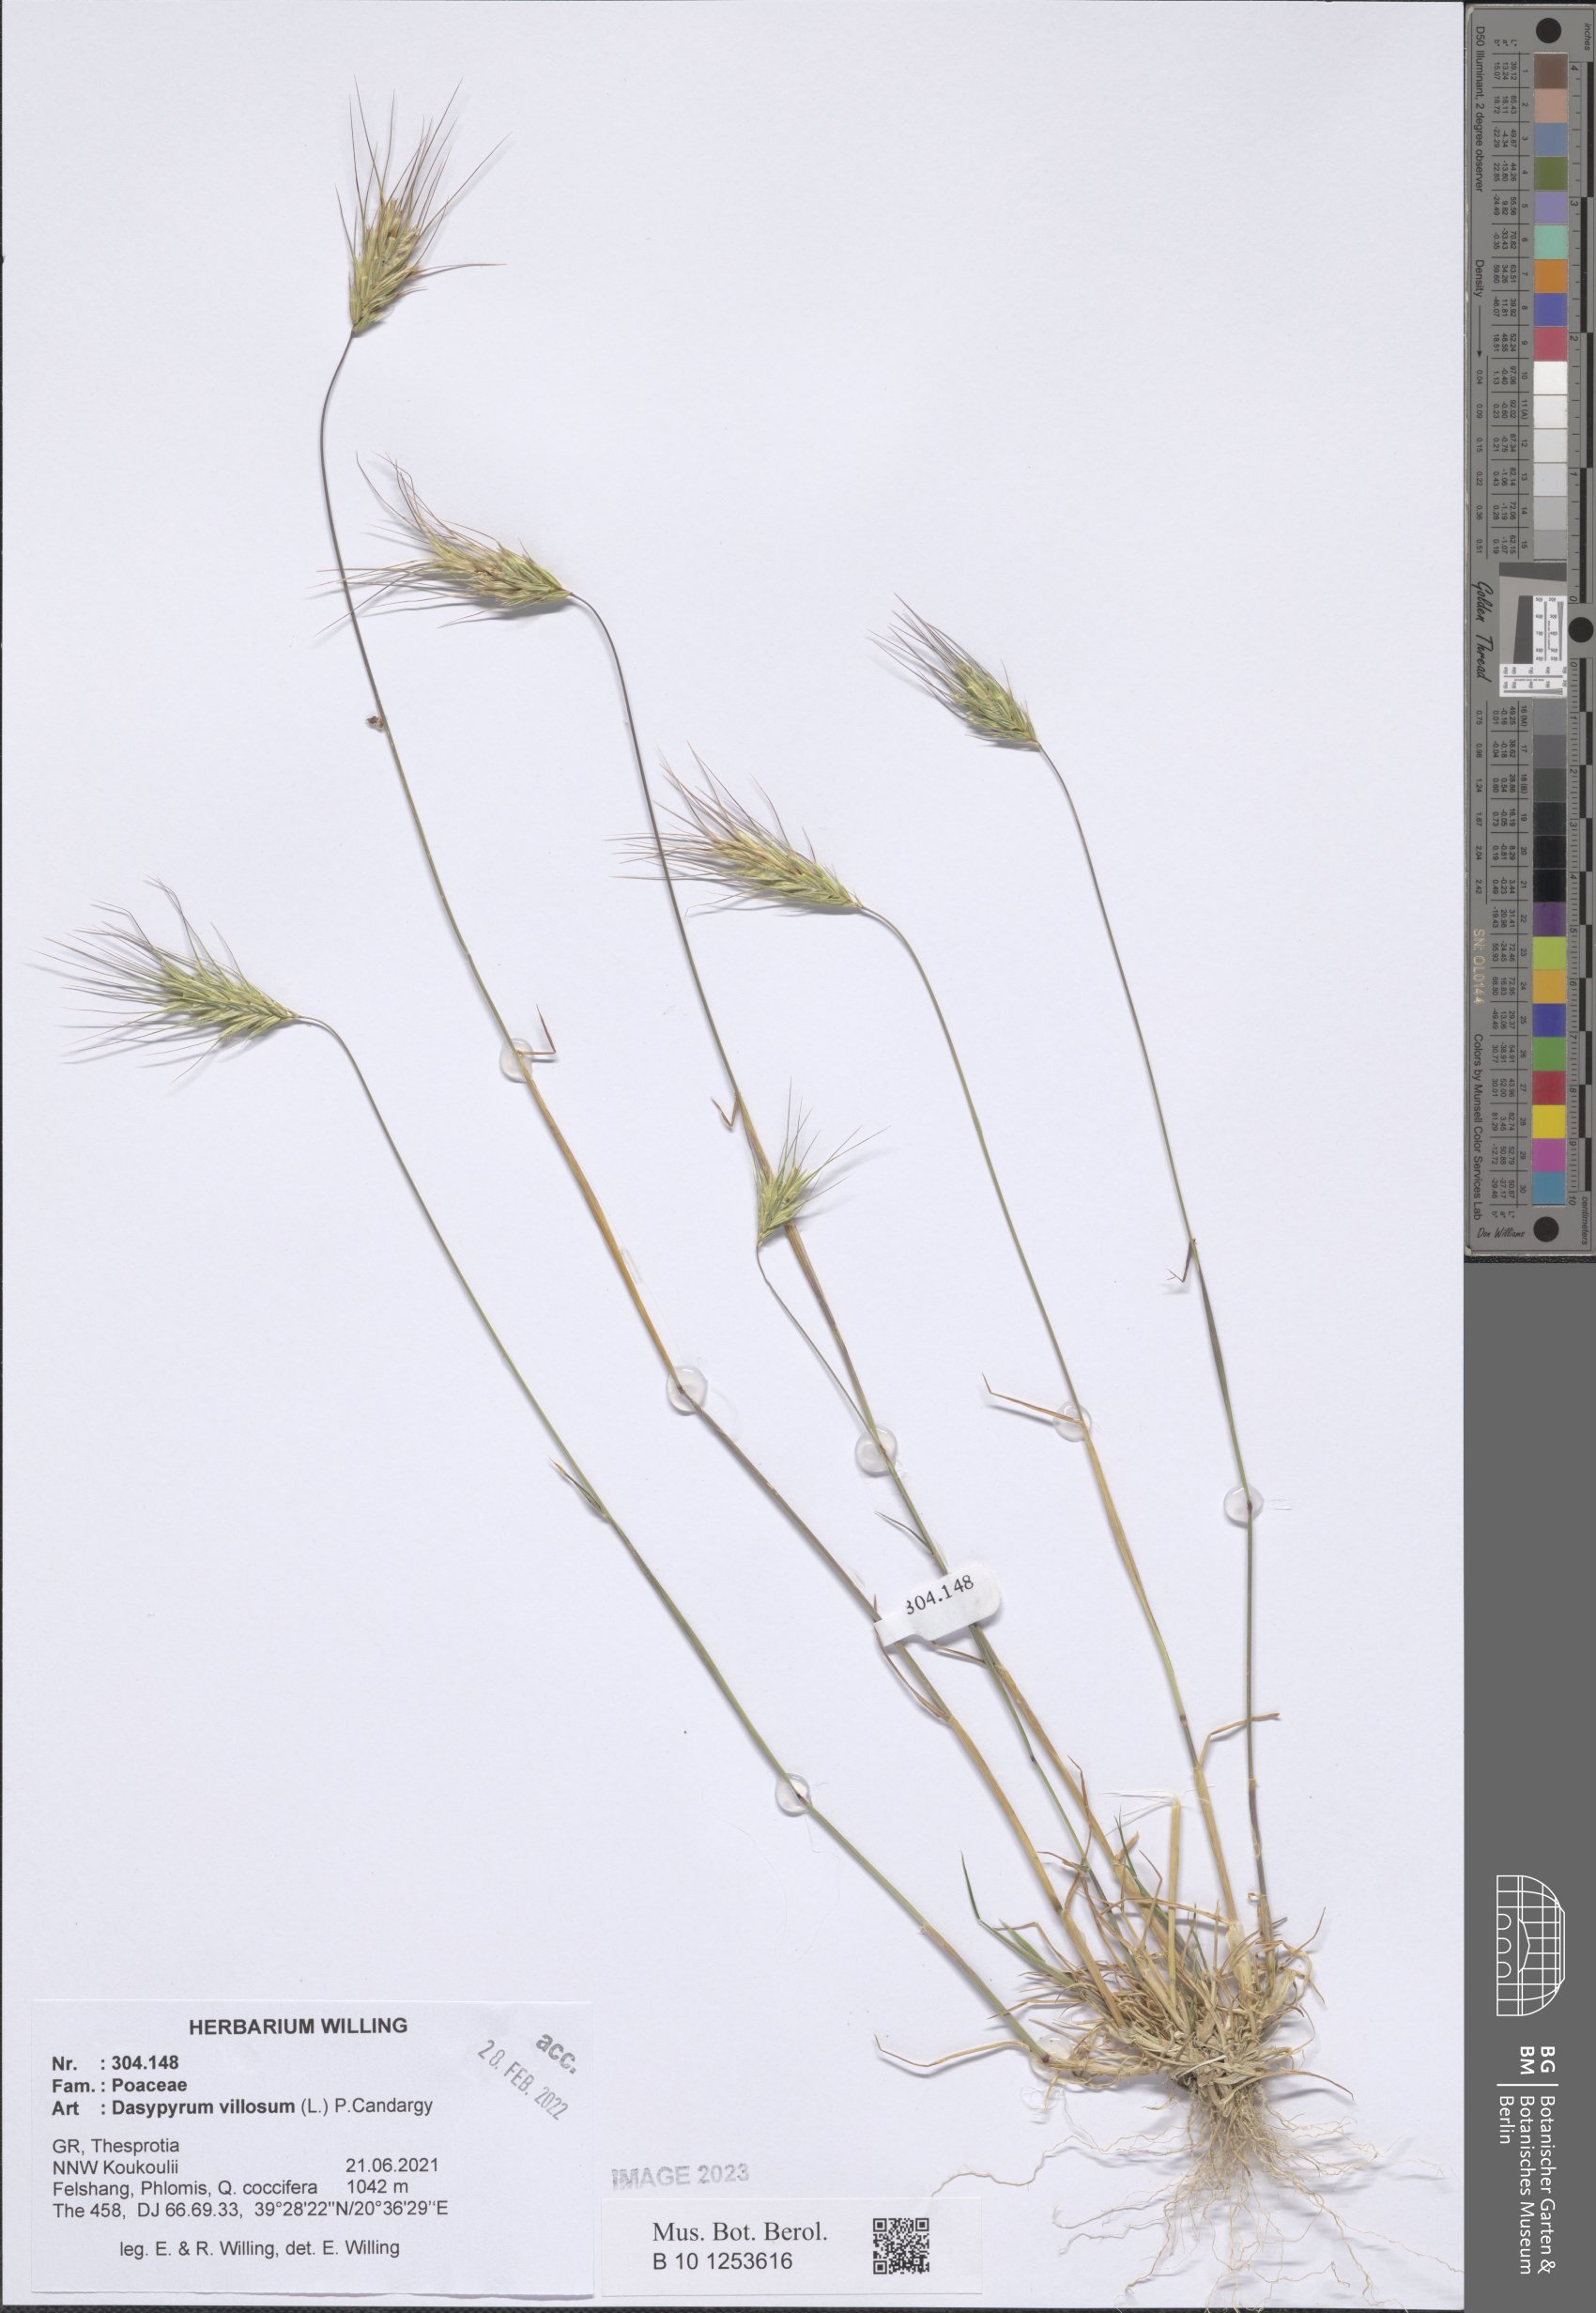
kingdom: Plantae
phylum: Tracheophyta
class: Liliopsida
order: Poales
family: Poaceae
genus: Dasypyrum
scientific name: Dasypyrum villosum
